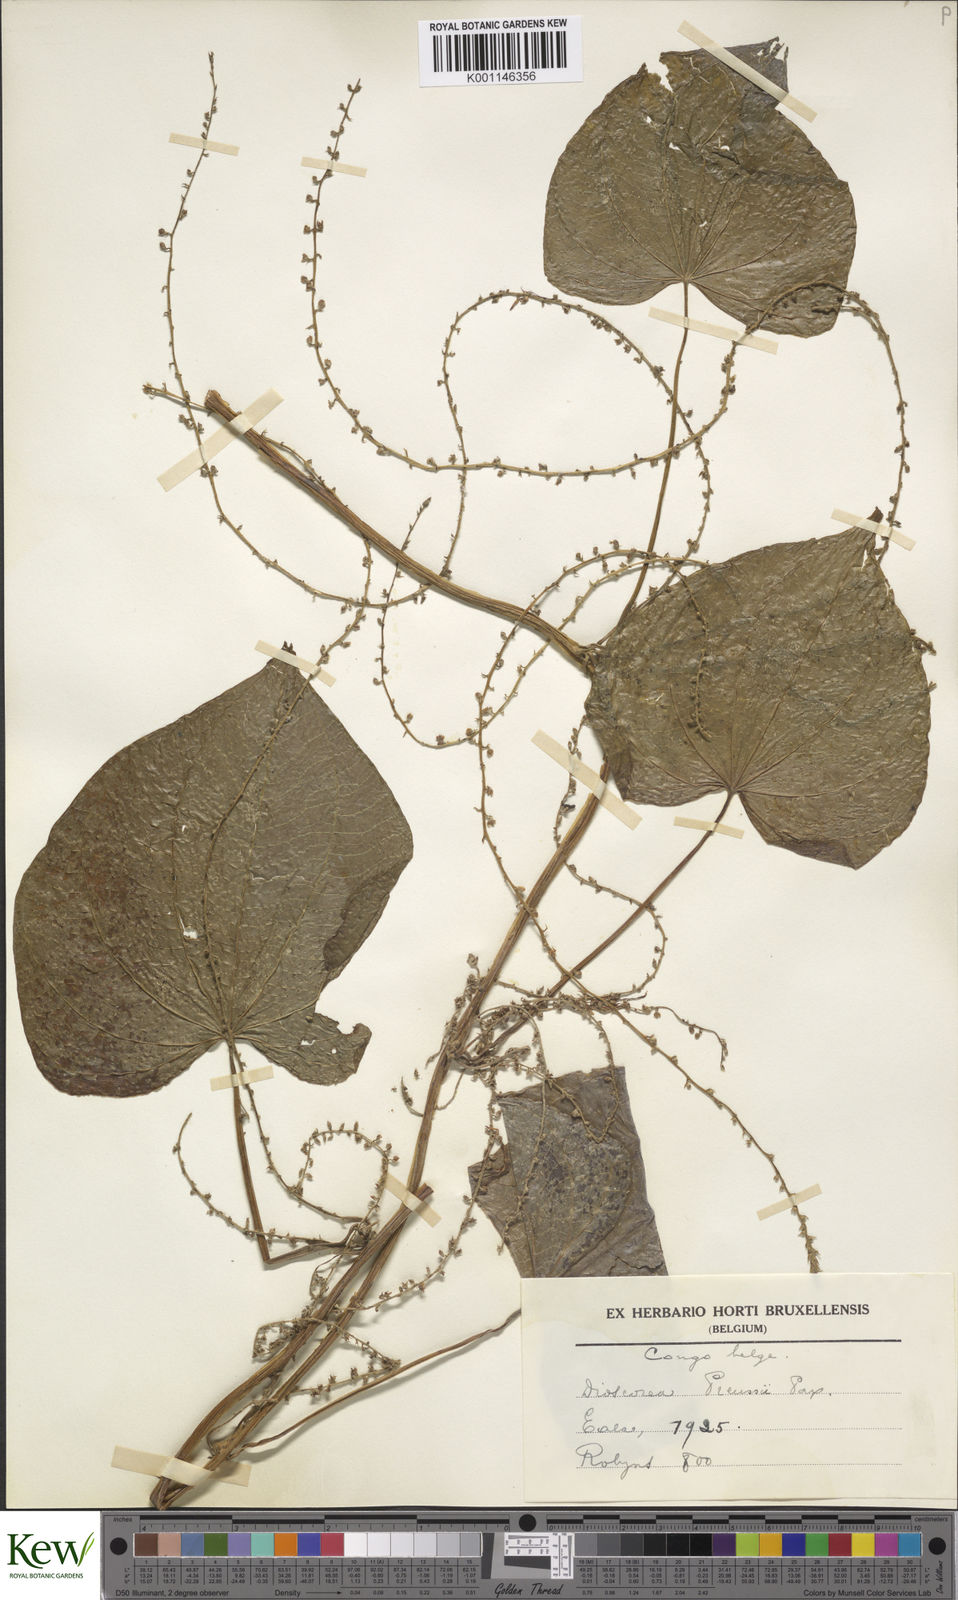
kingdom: Plantae
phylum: Tracheophyta
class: Liliopsida
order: Dioscoreales
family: Dioscoreaceae
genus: Dioscorea
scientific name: Dioscorea preussii
